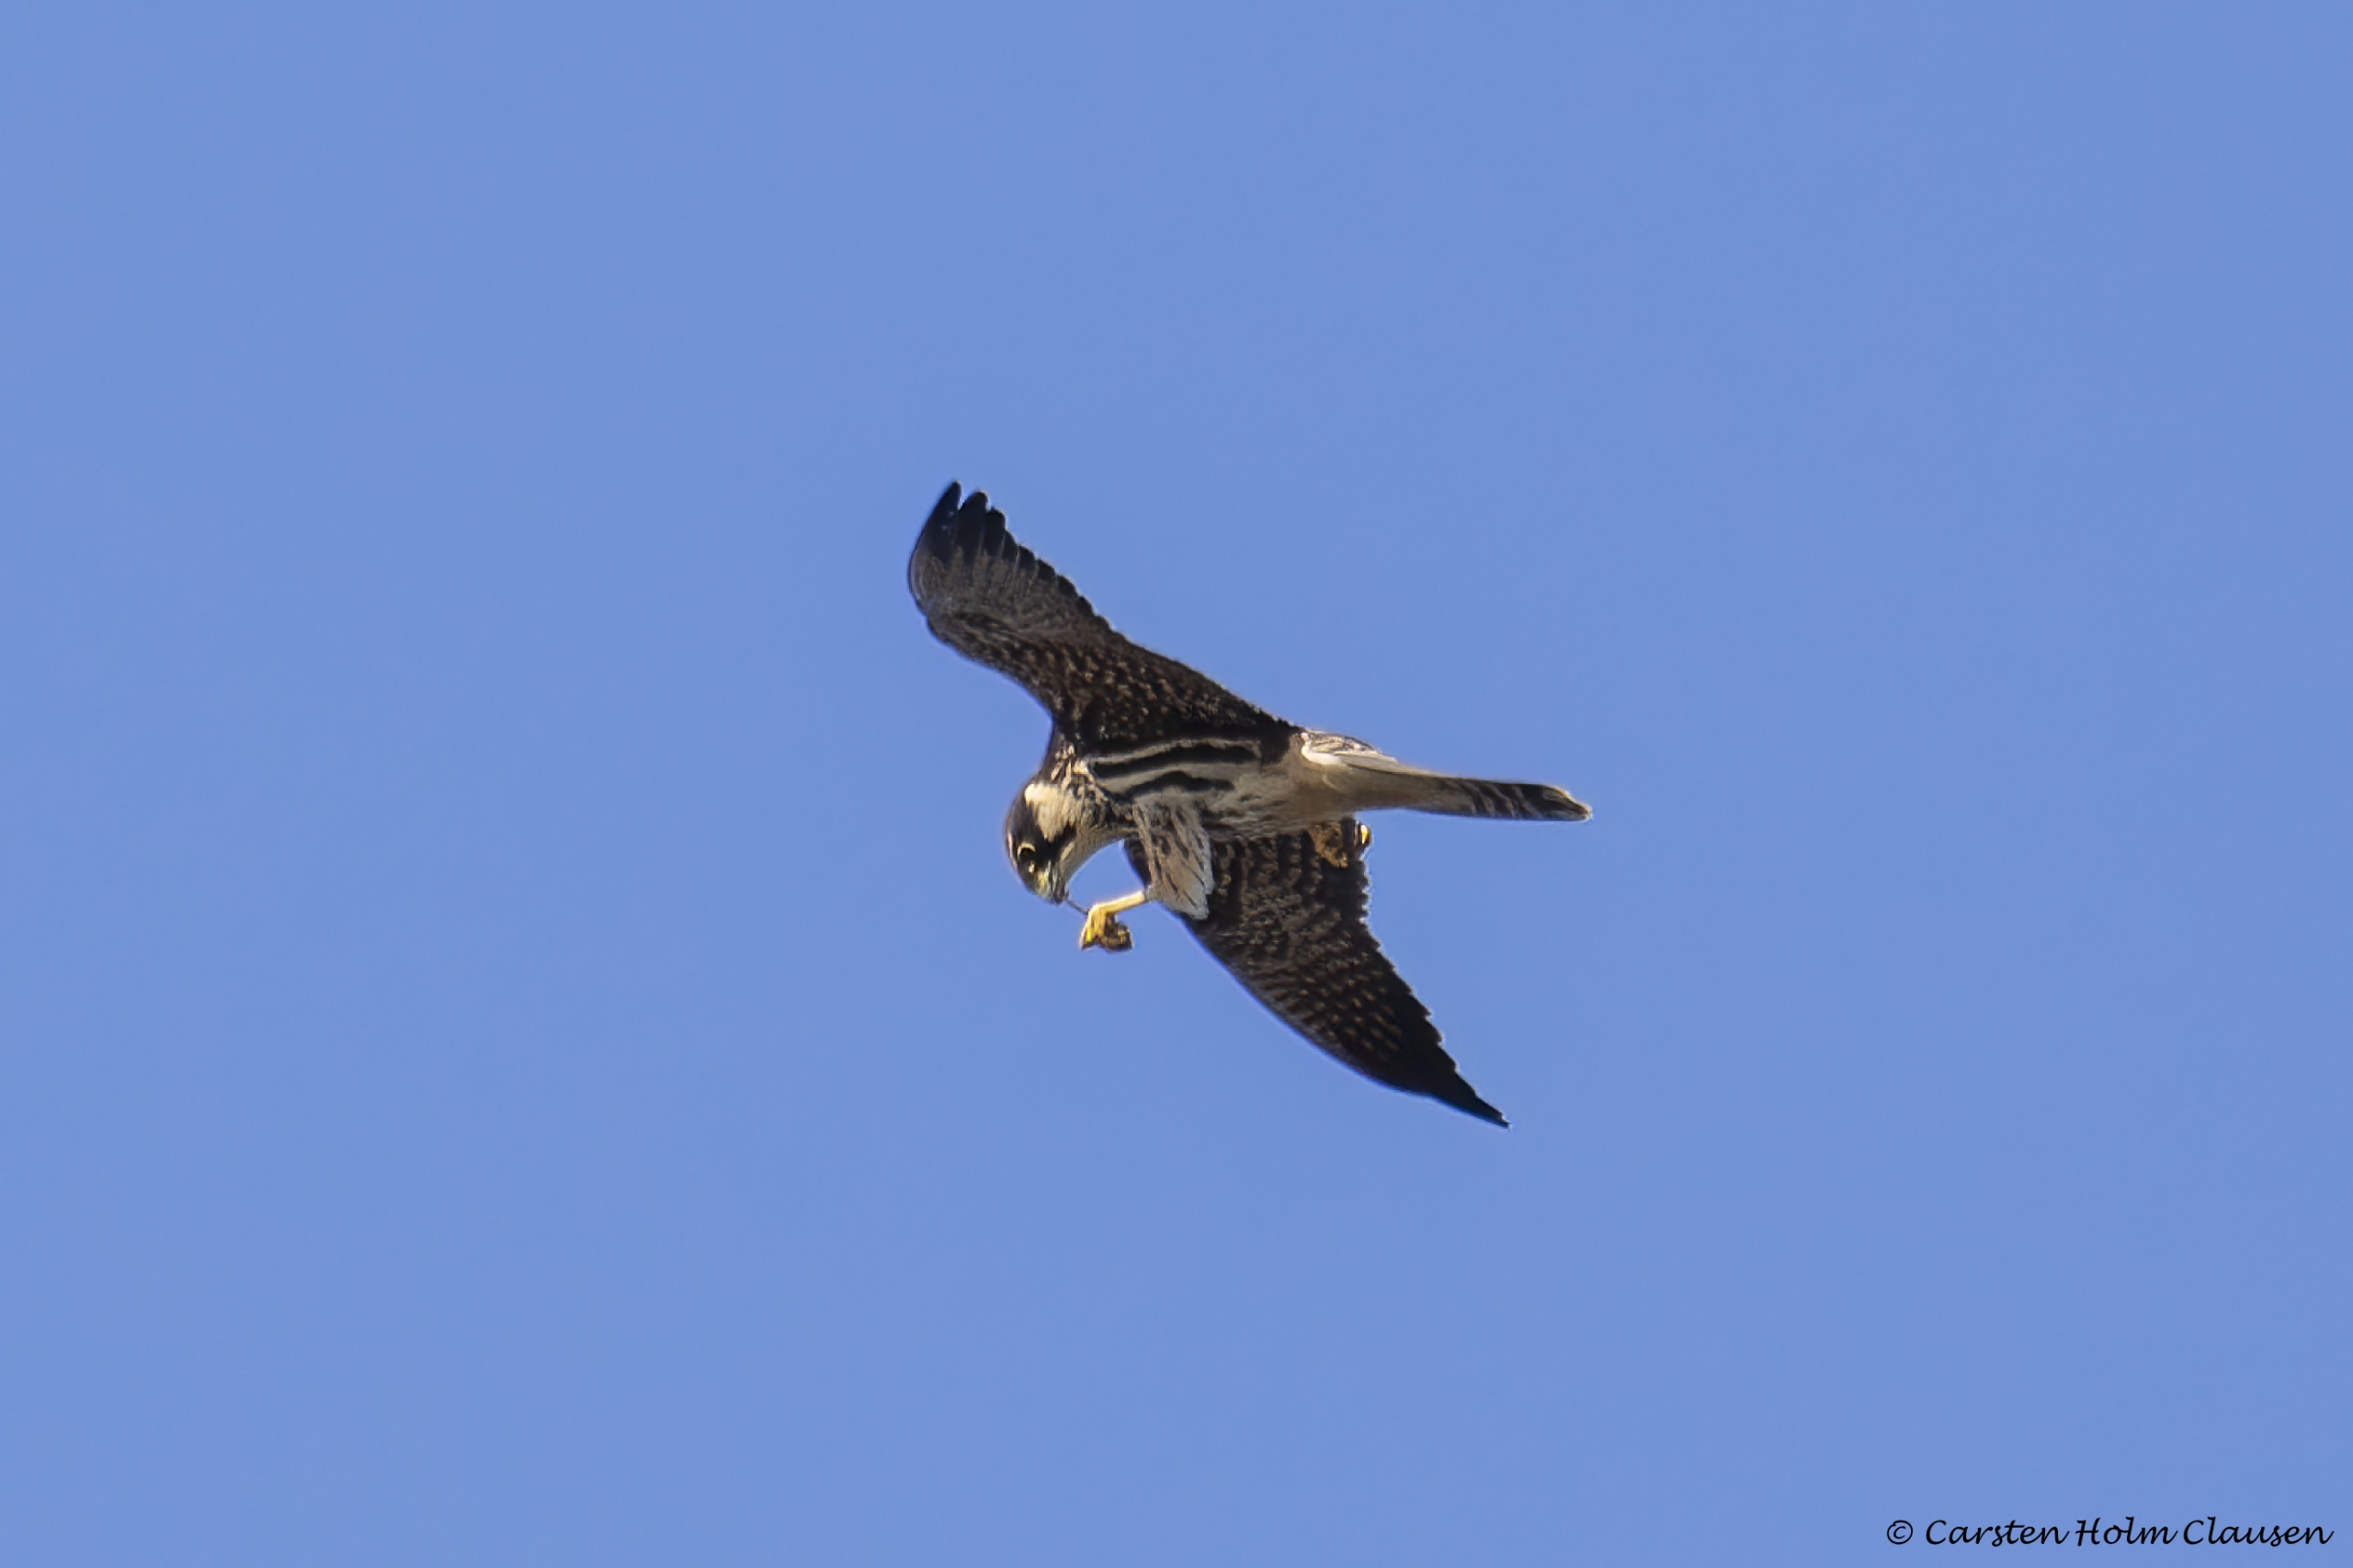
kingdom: Animalia
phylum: Chordata
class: Aves
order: Falconiformes
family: Falconidae
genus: Falco
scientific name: Falco subbuteo
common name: Lærkefalk
